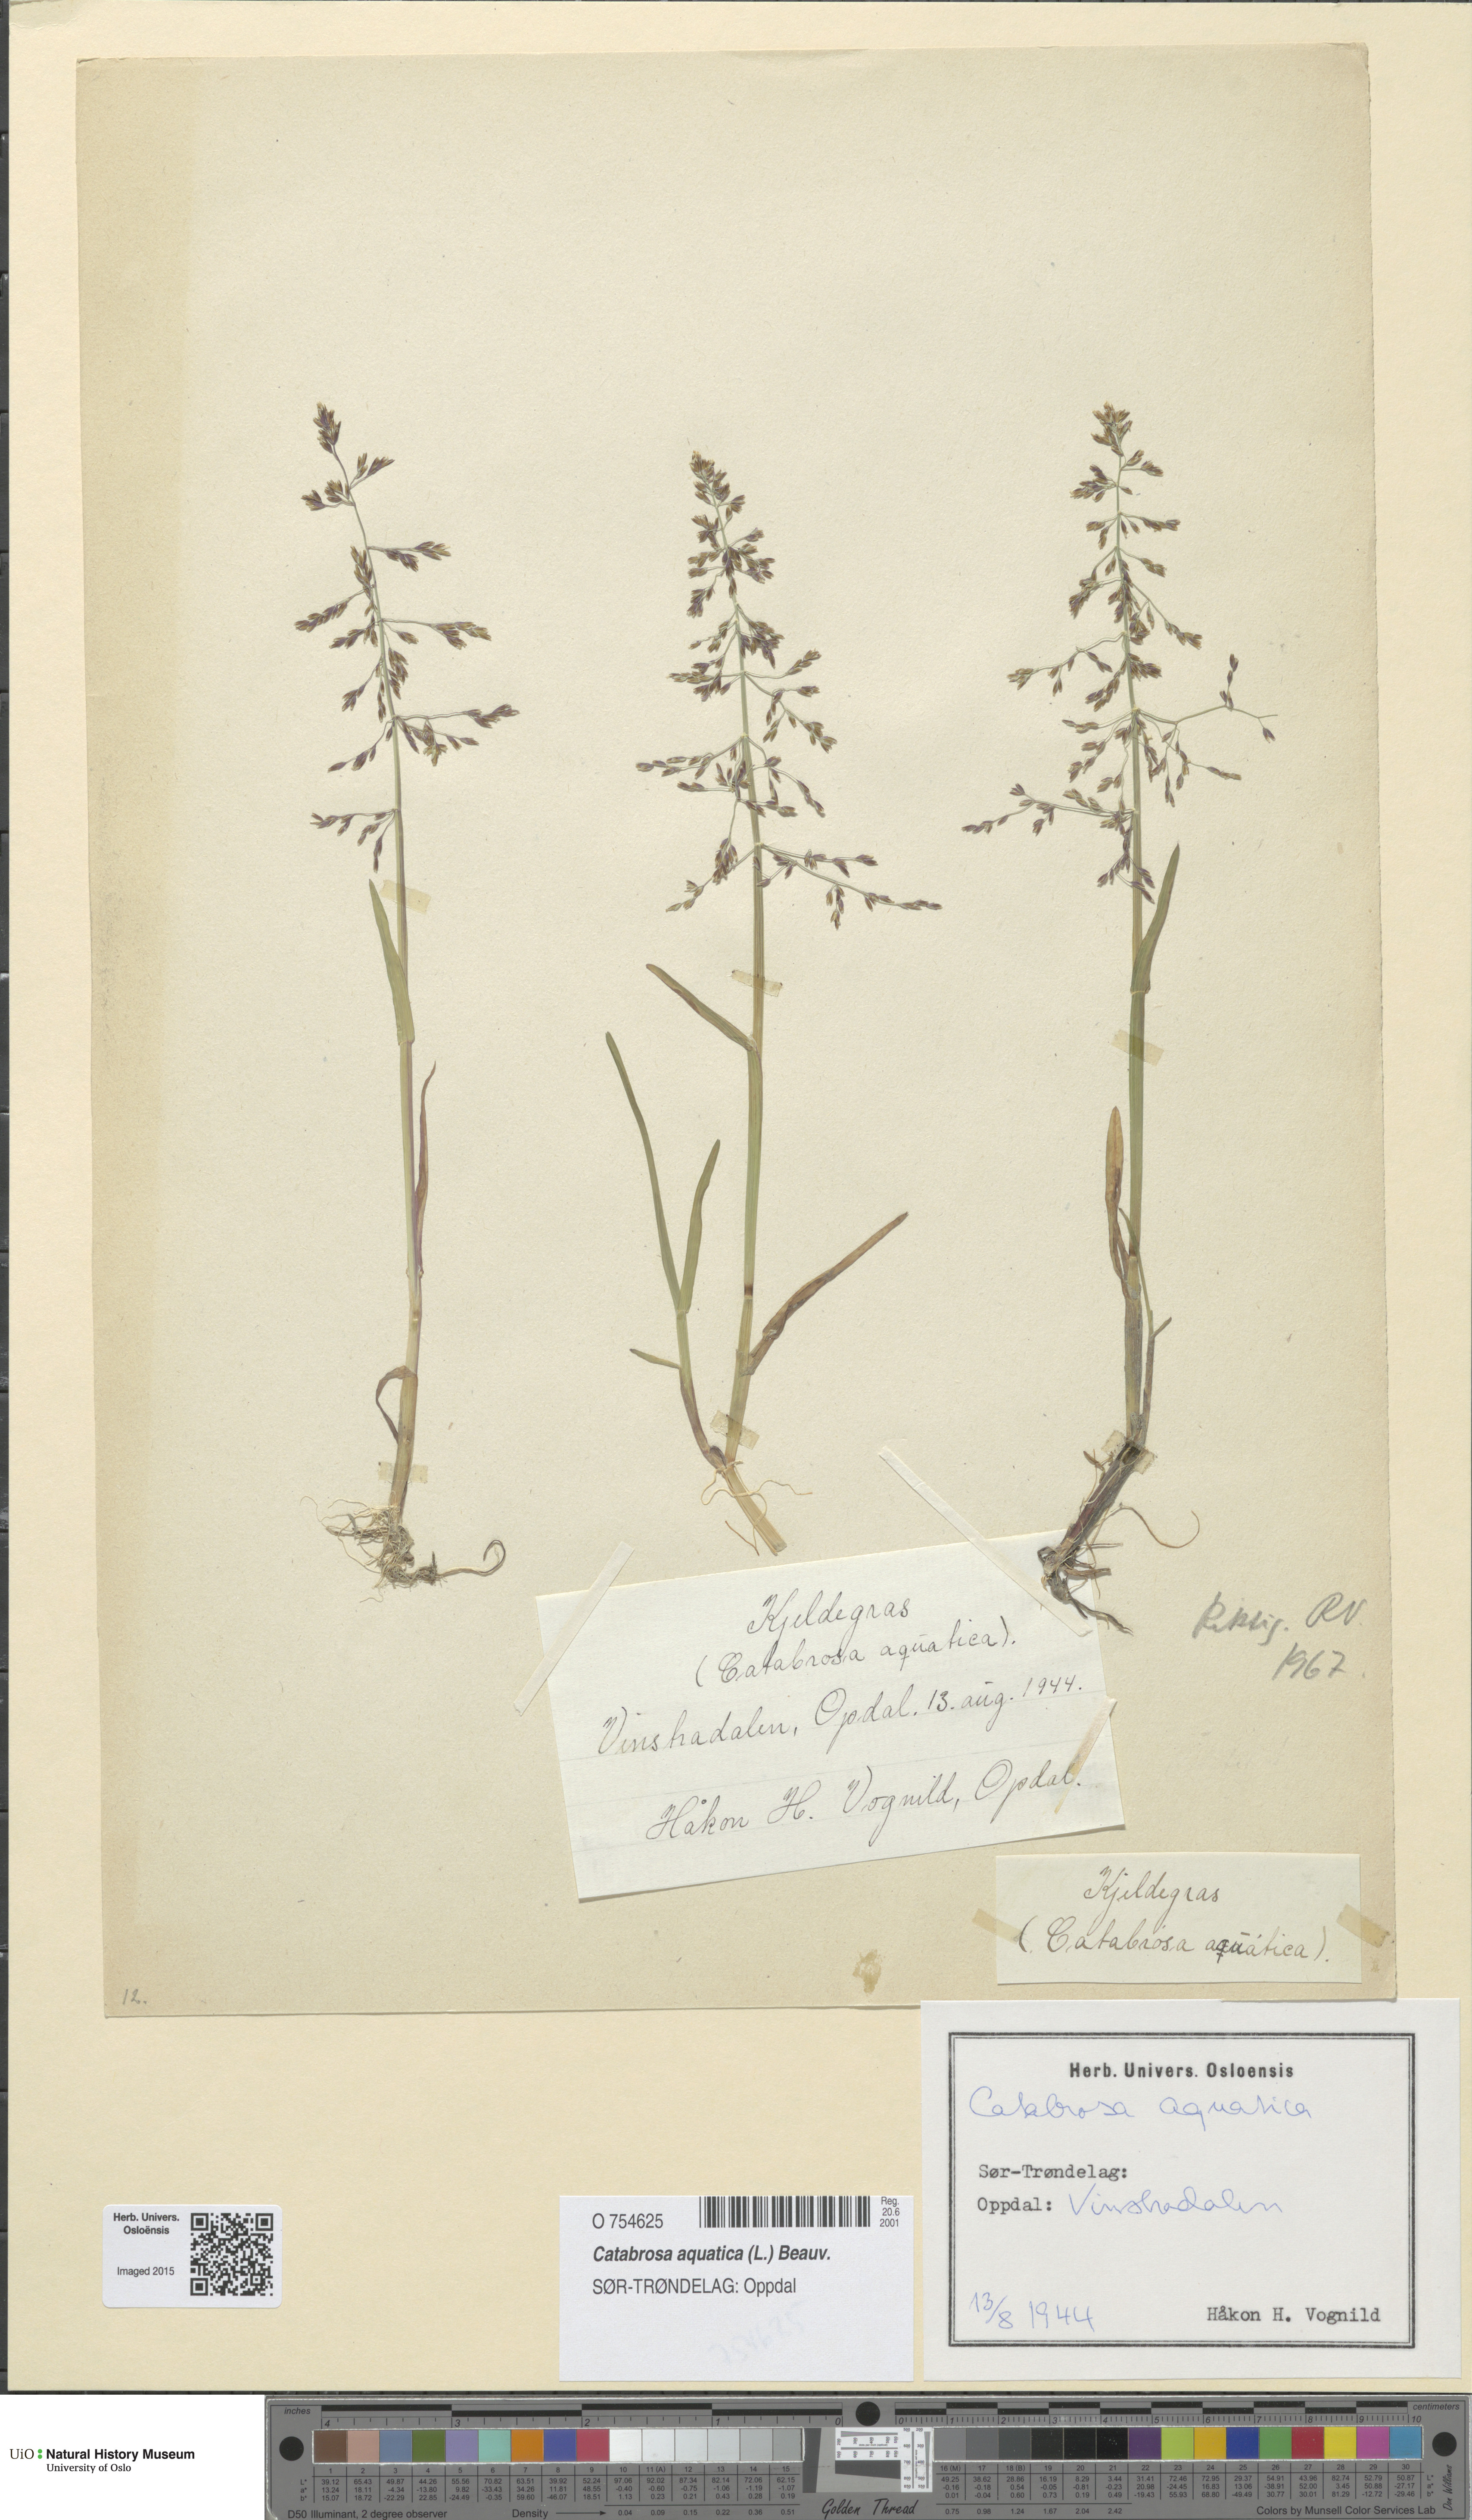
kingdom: Plantae
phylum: Tracheophyta
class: Liliopsida
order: Poales
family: Poaceae
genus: Catabrosa
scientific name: Catabrosa aquatica
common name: Whorl-grass
